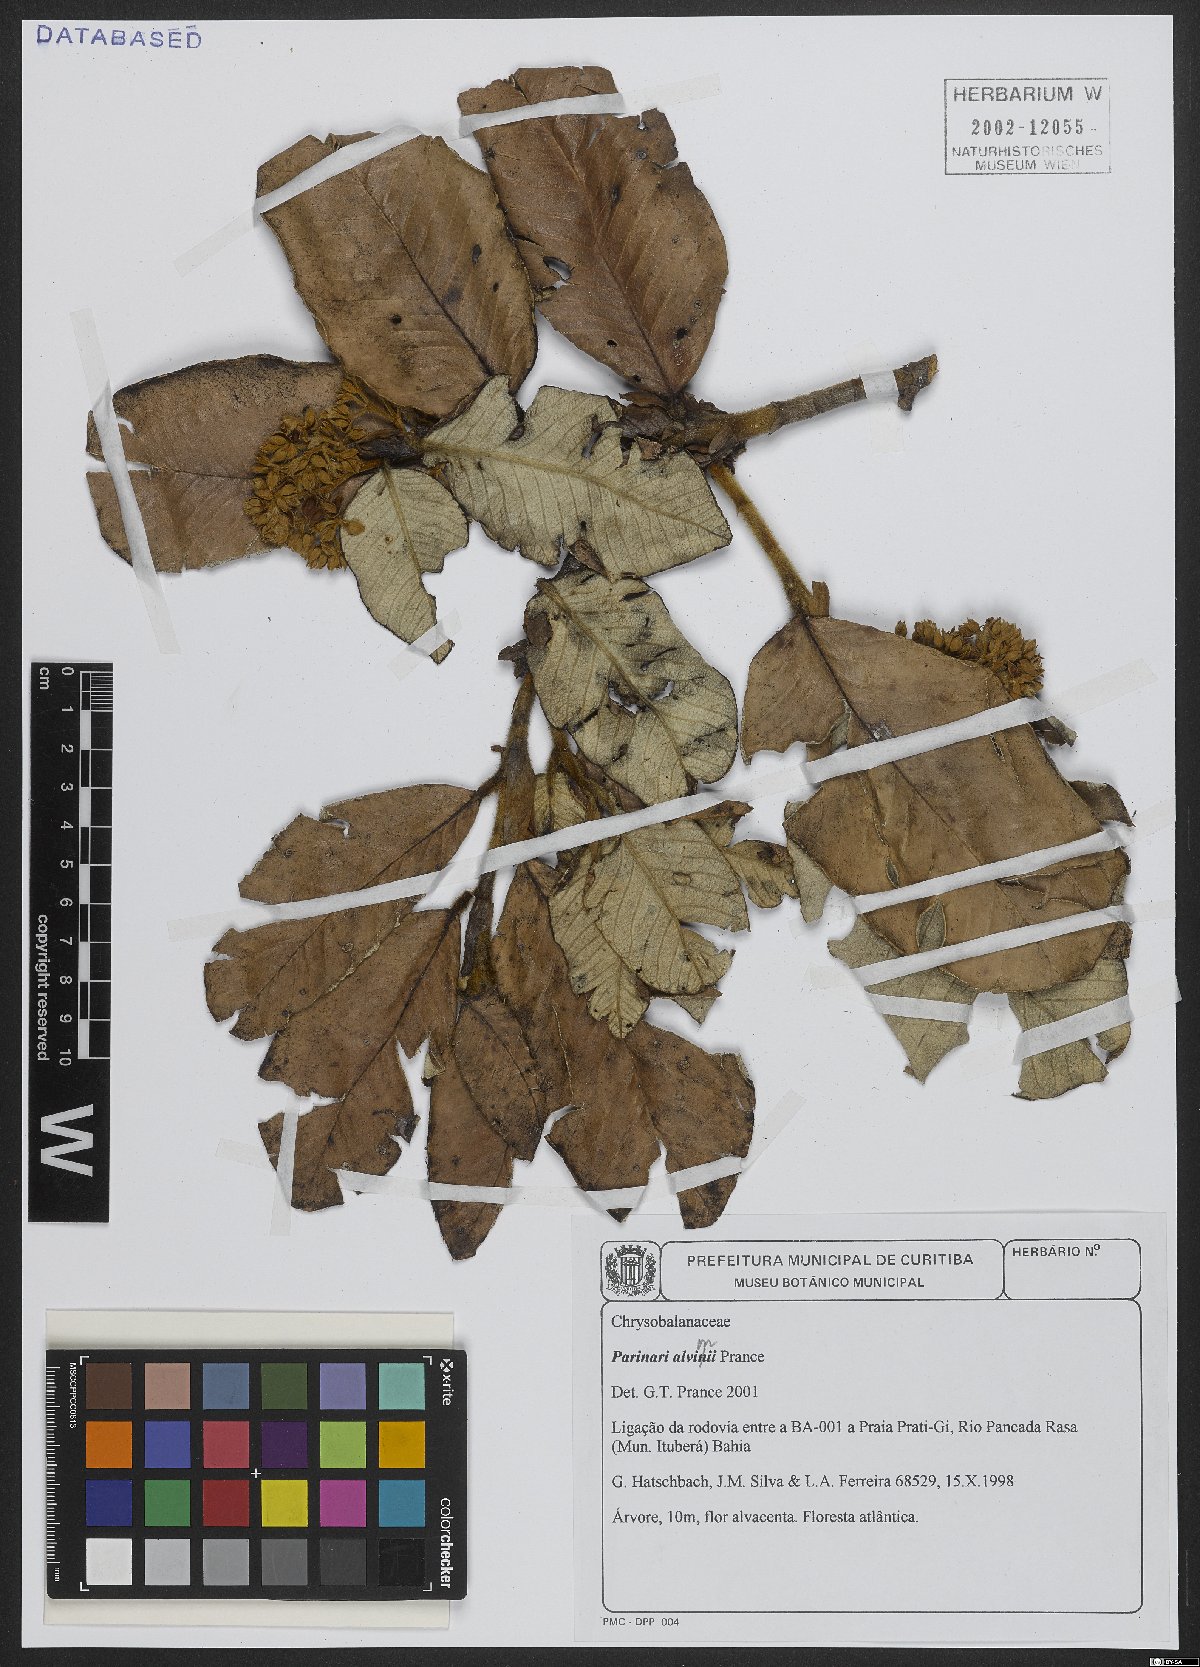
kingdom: Plantae
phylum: Tracheophyta
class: Magnoliopsida
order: Malpighiales
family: Chrysobalanaceae
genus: Parinari
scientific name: Parinari alvimii
